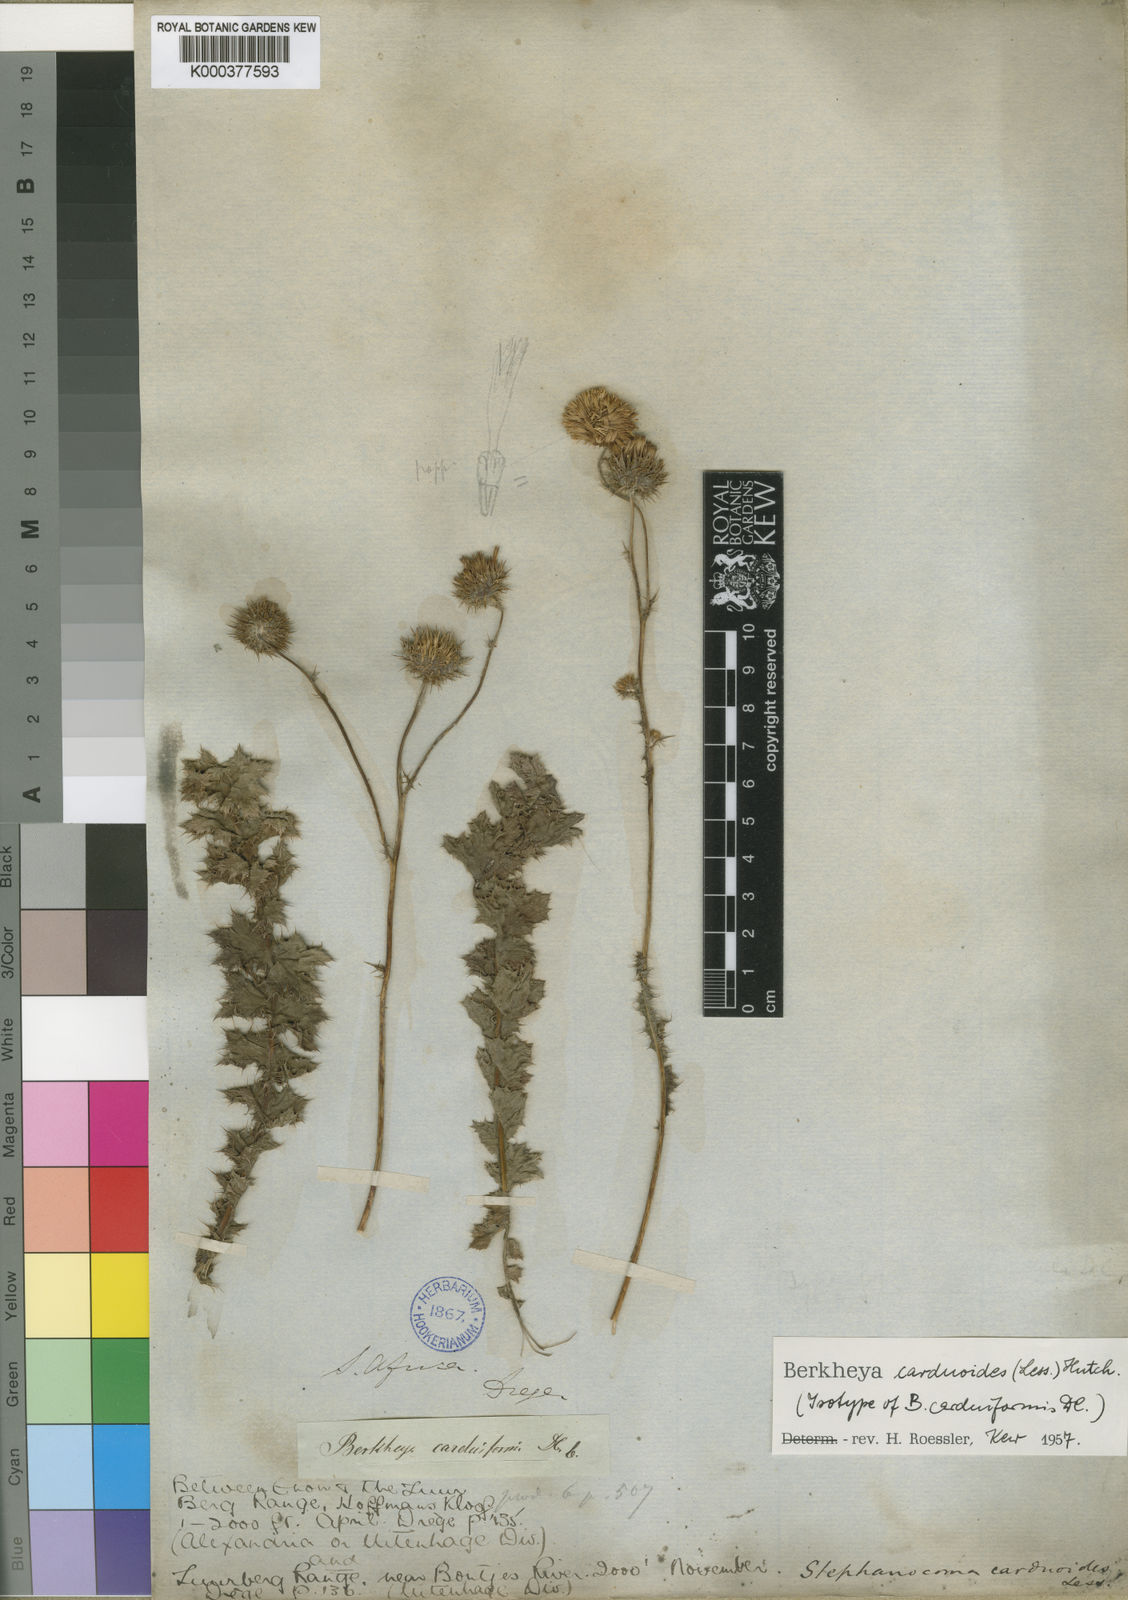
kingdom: Plantae
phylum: Tracheophyta
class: Magnoliopsida
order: Asterales
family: Asteraceae
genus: Berkheya
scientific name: Berkheya carduoides
